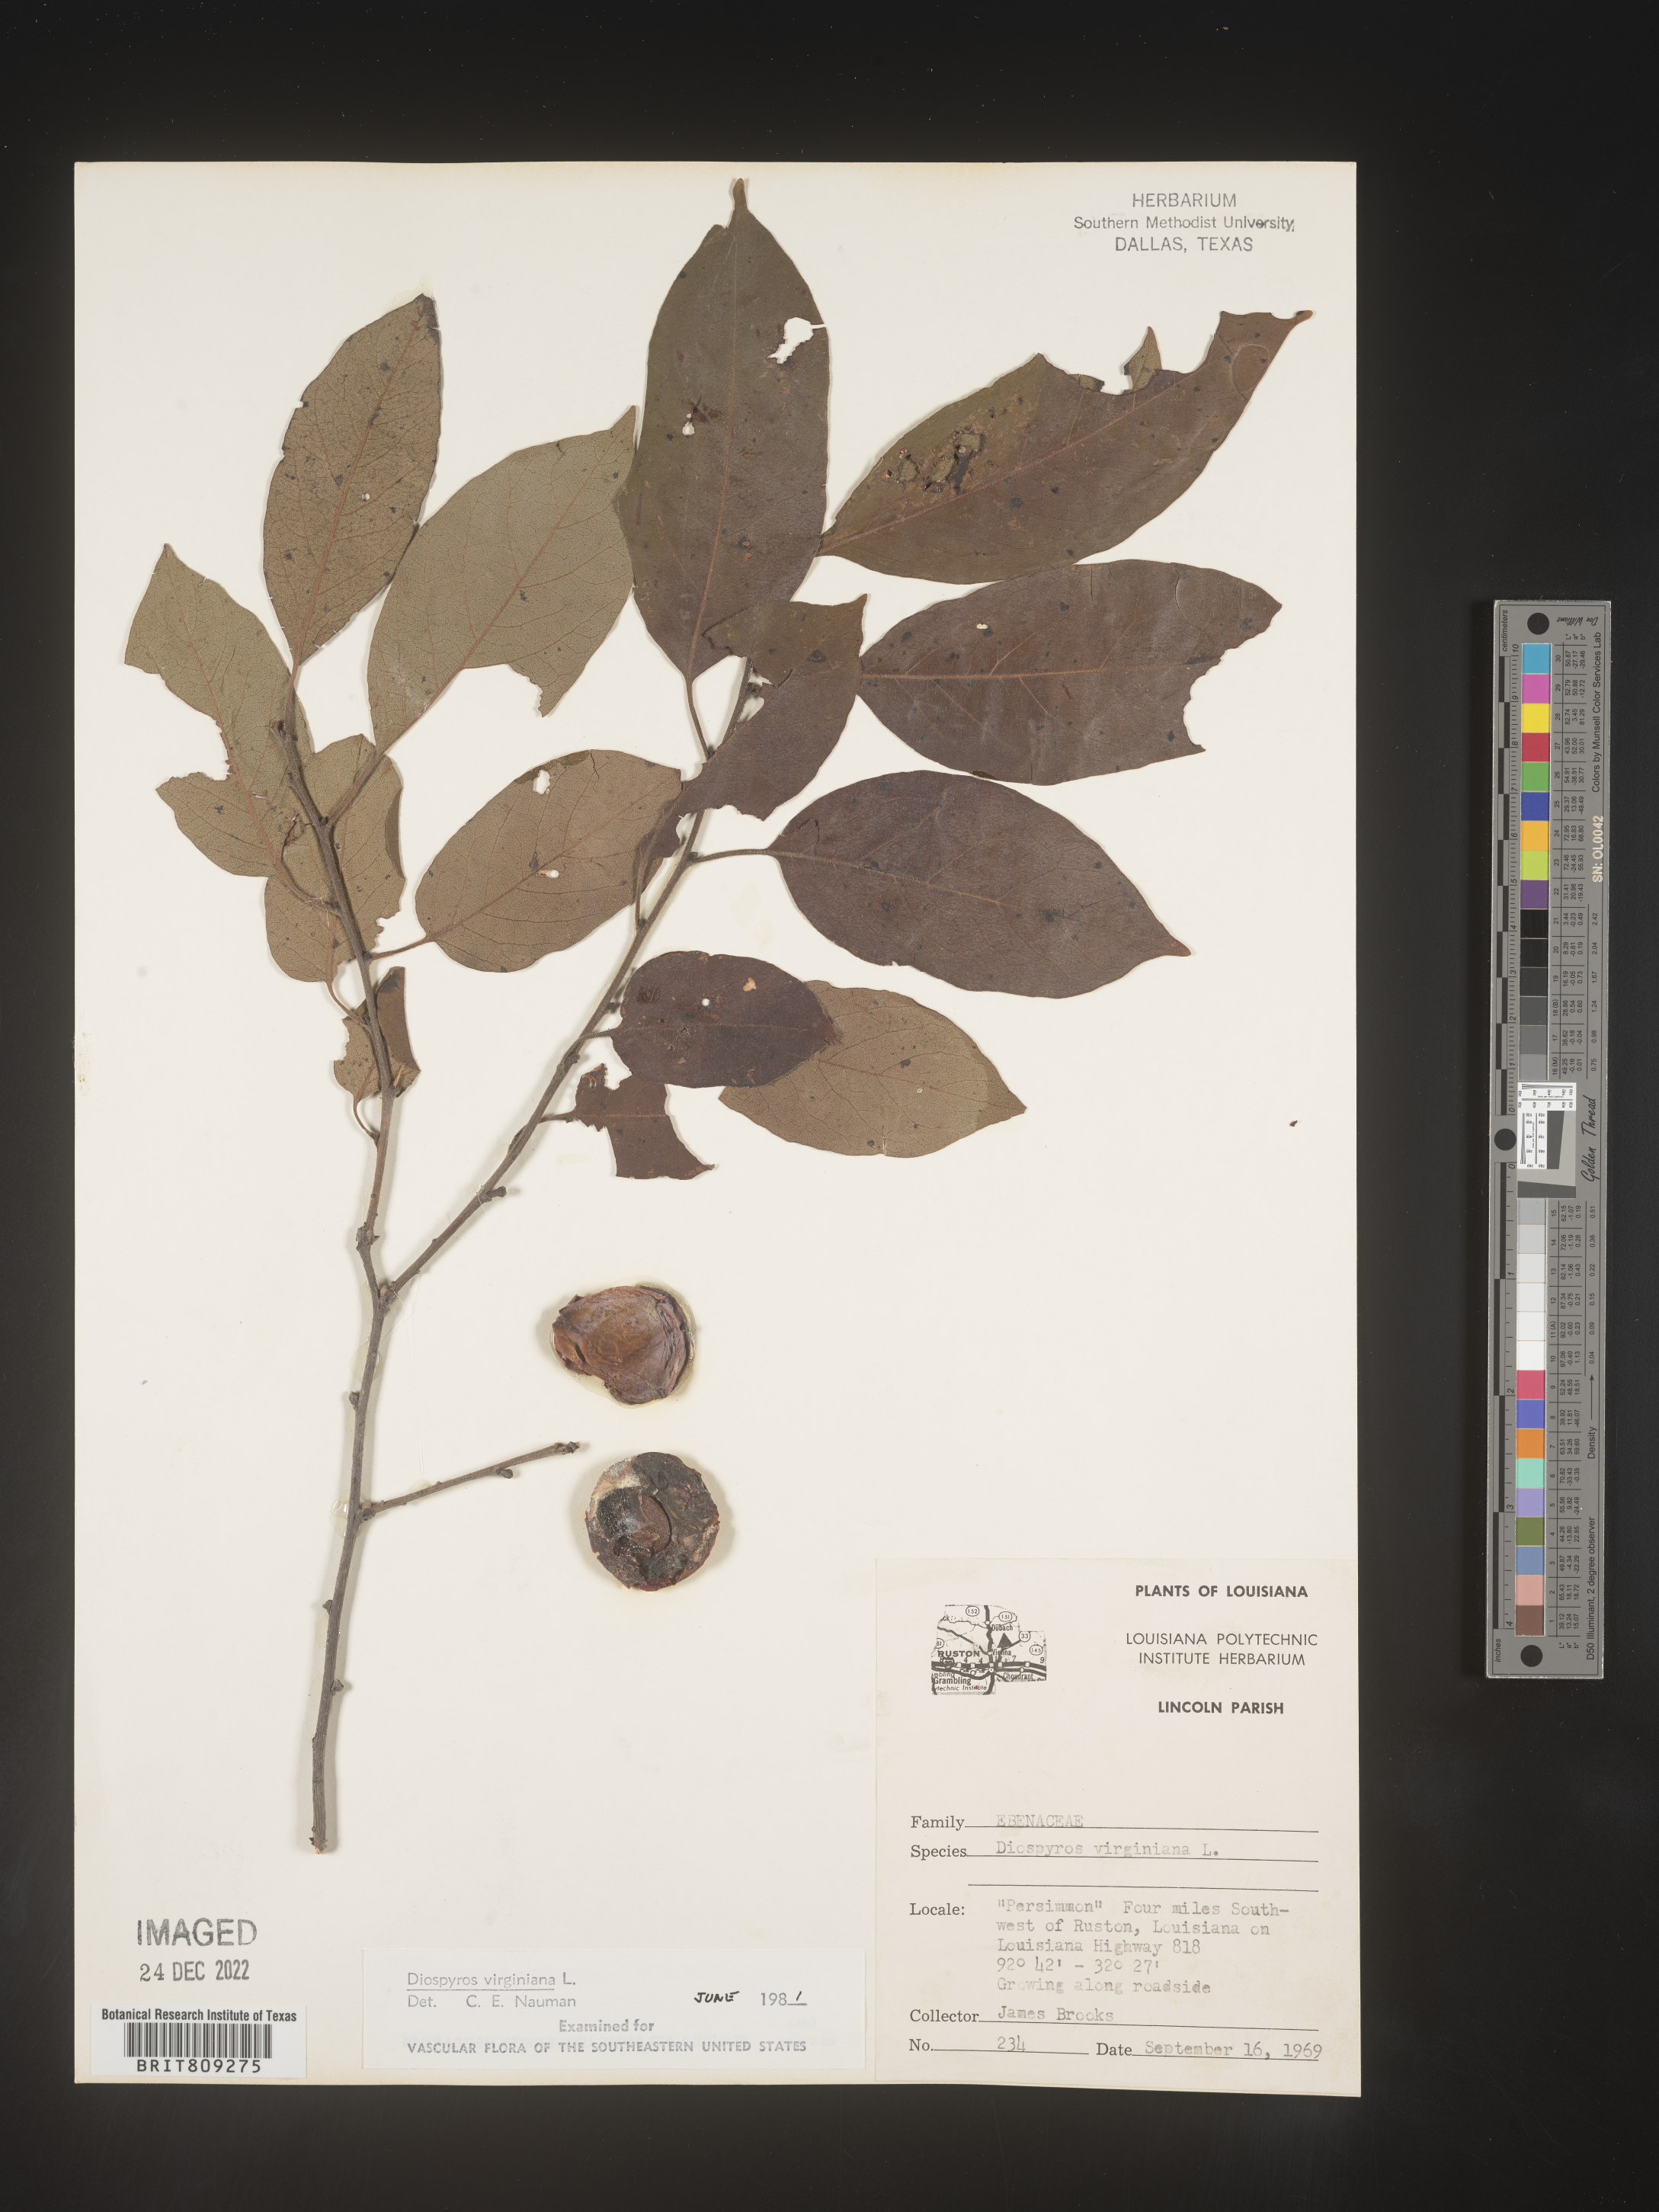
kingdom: Plantae
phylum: Tracheophyta
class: Magnoliopsida
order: Ericales
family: Ebenaceae
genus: Diospyros
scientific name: Diospyros virginiana
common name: Persimmon
